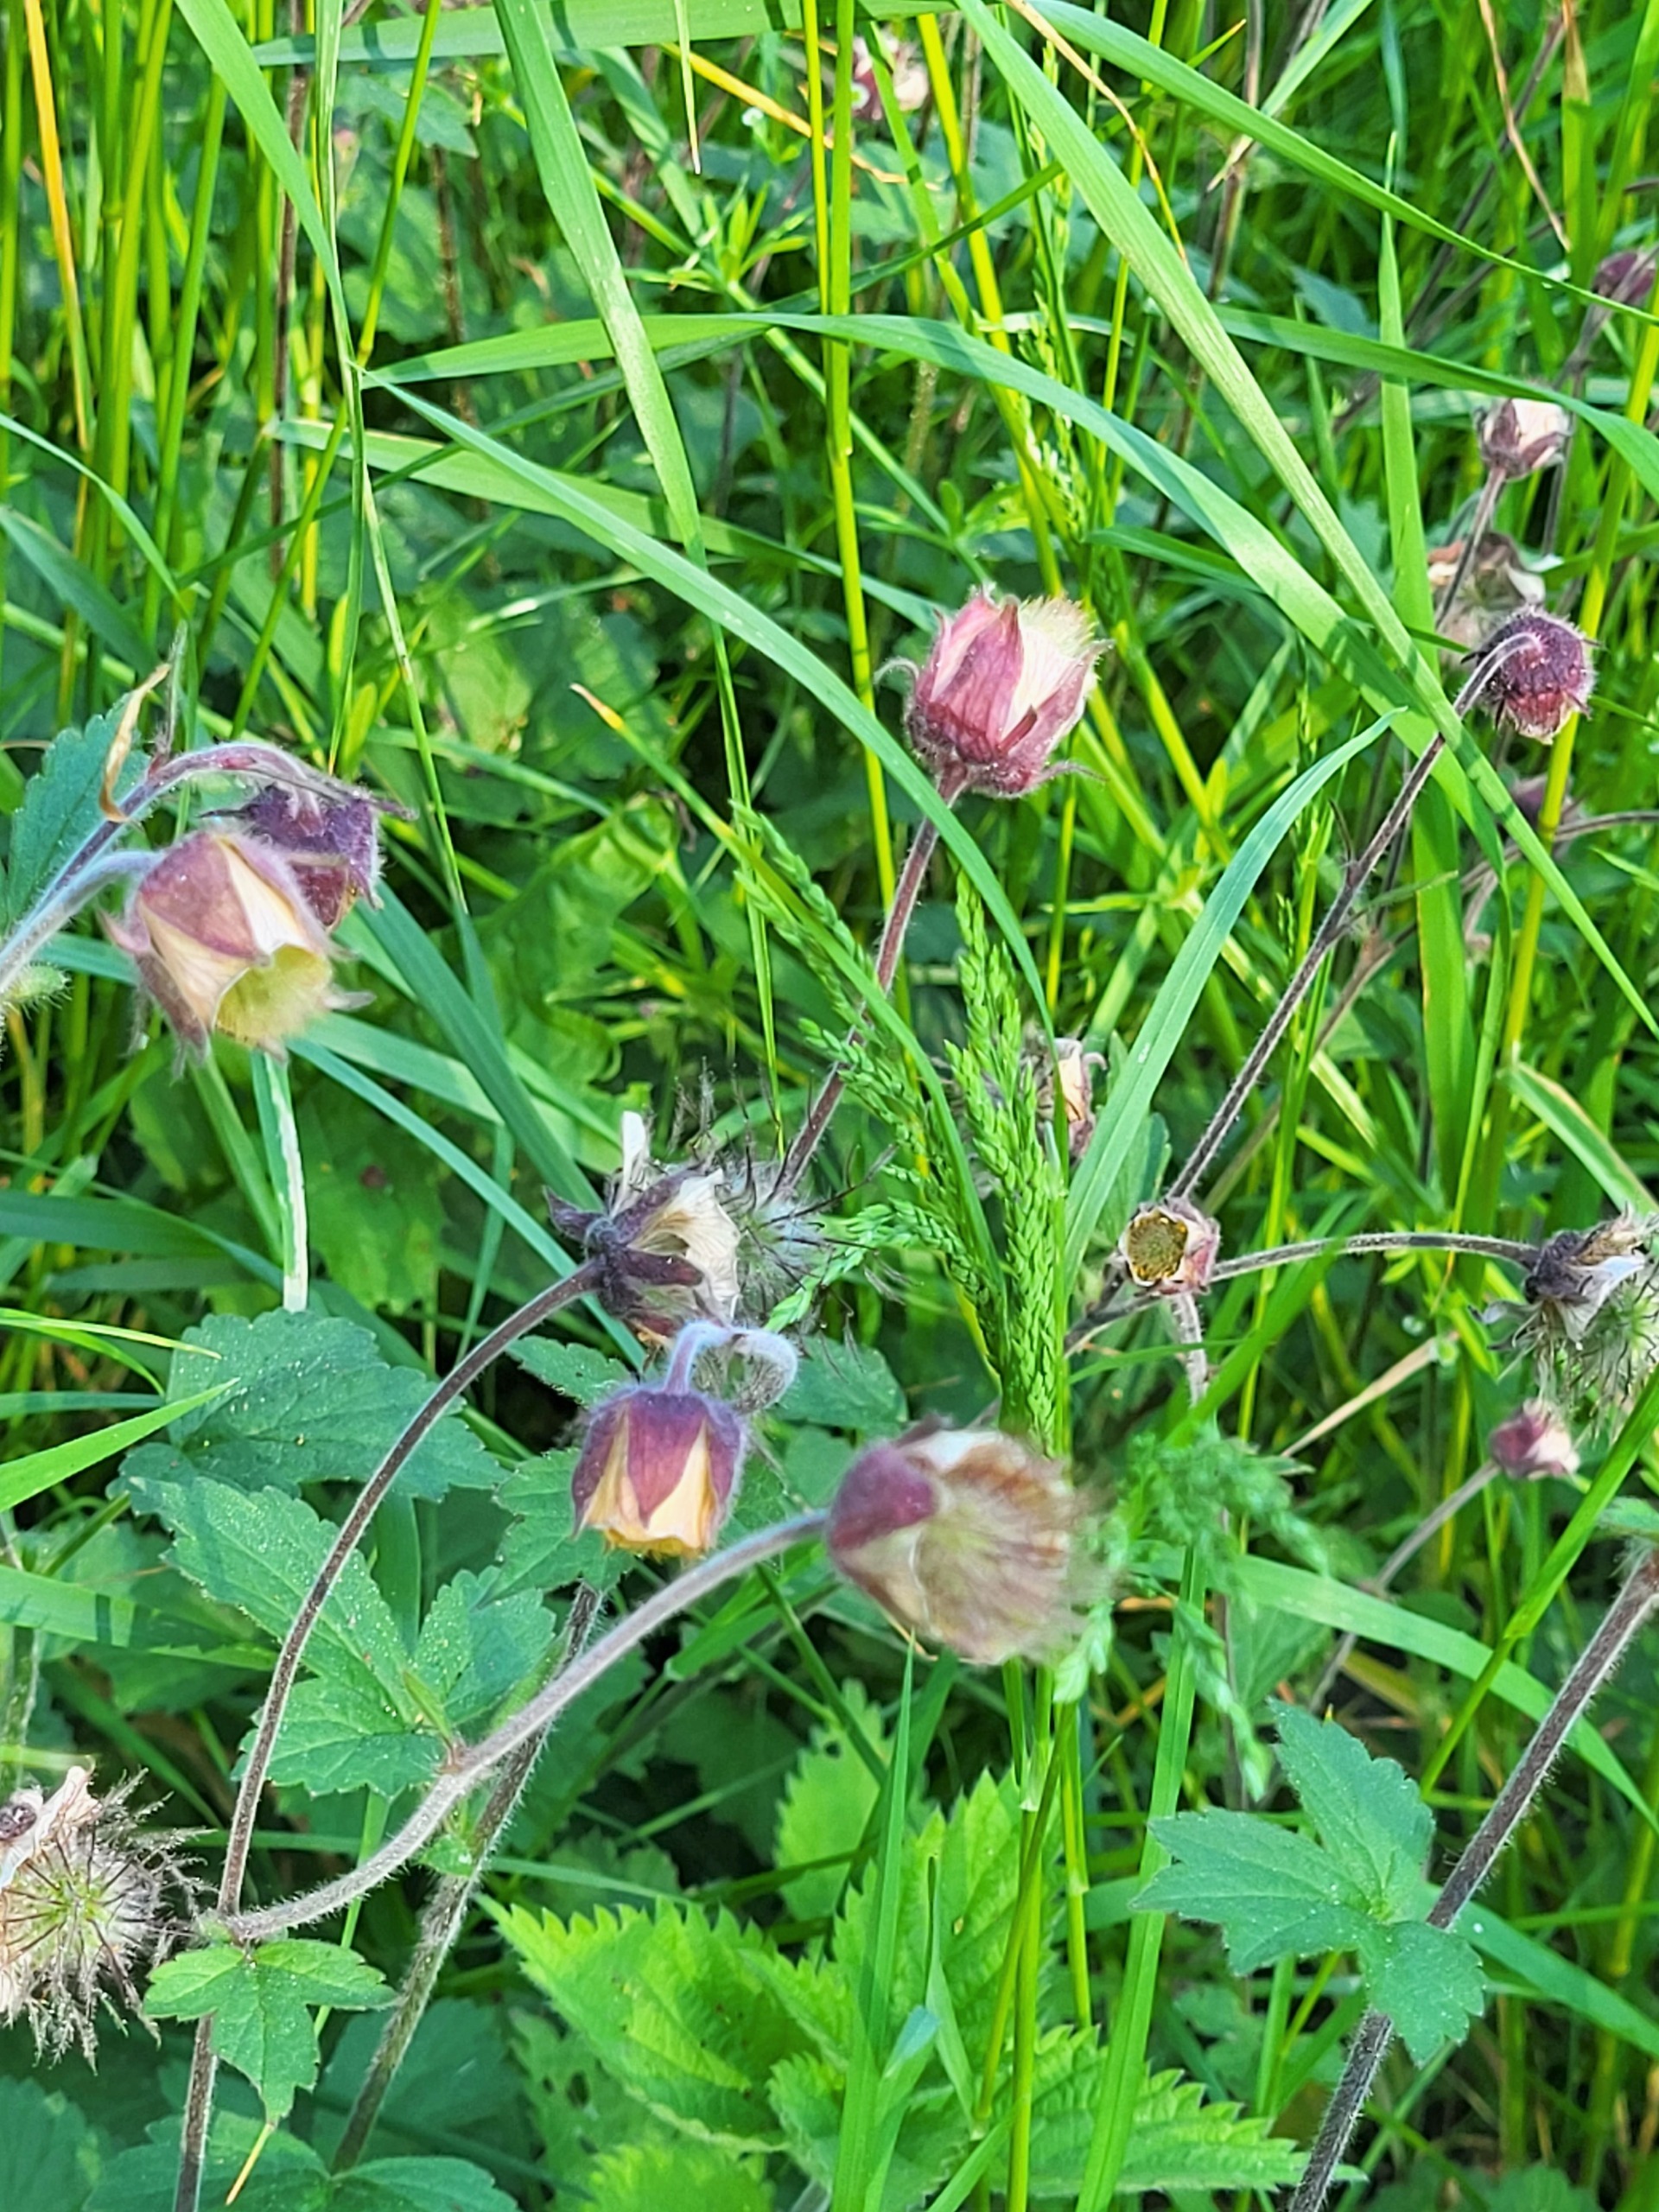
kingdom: Plantae
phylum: Tracheophyta
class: Magnoliopsida
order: Rosales
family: Rosaceae
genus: Geum
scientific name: Geum rivale
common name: Eng-nellikerod
